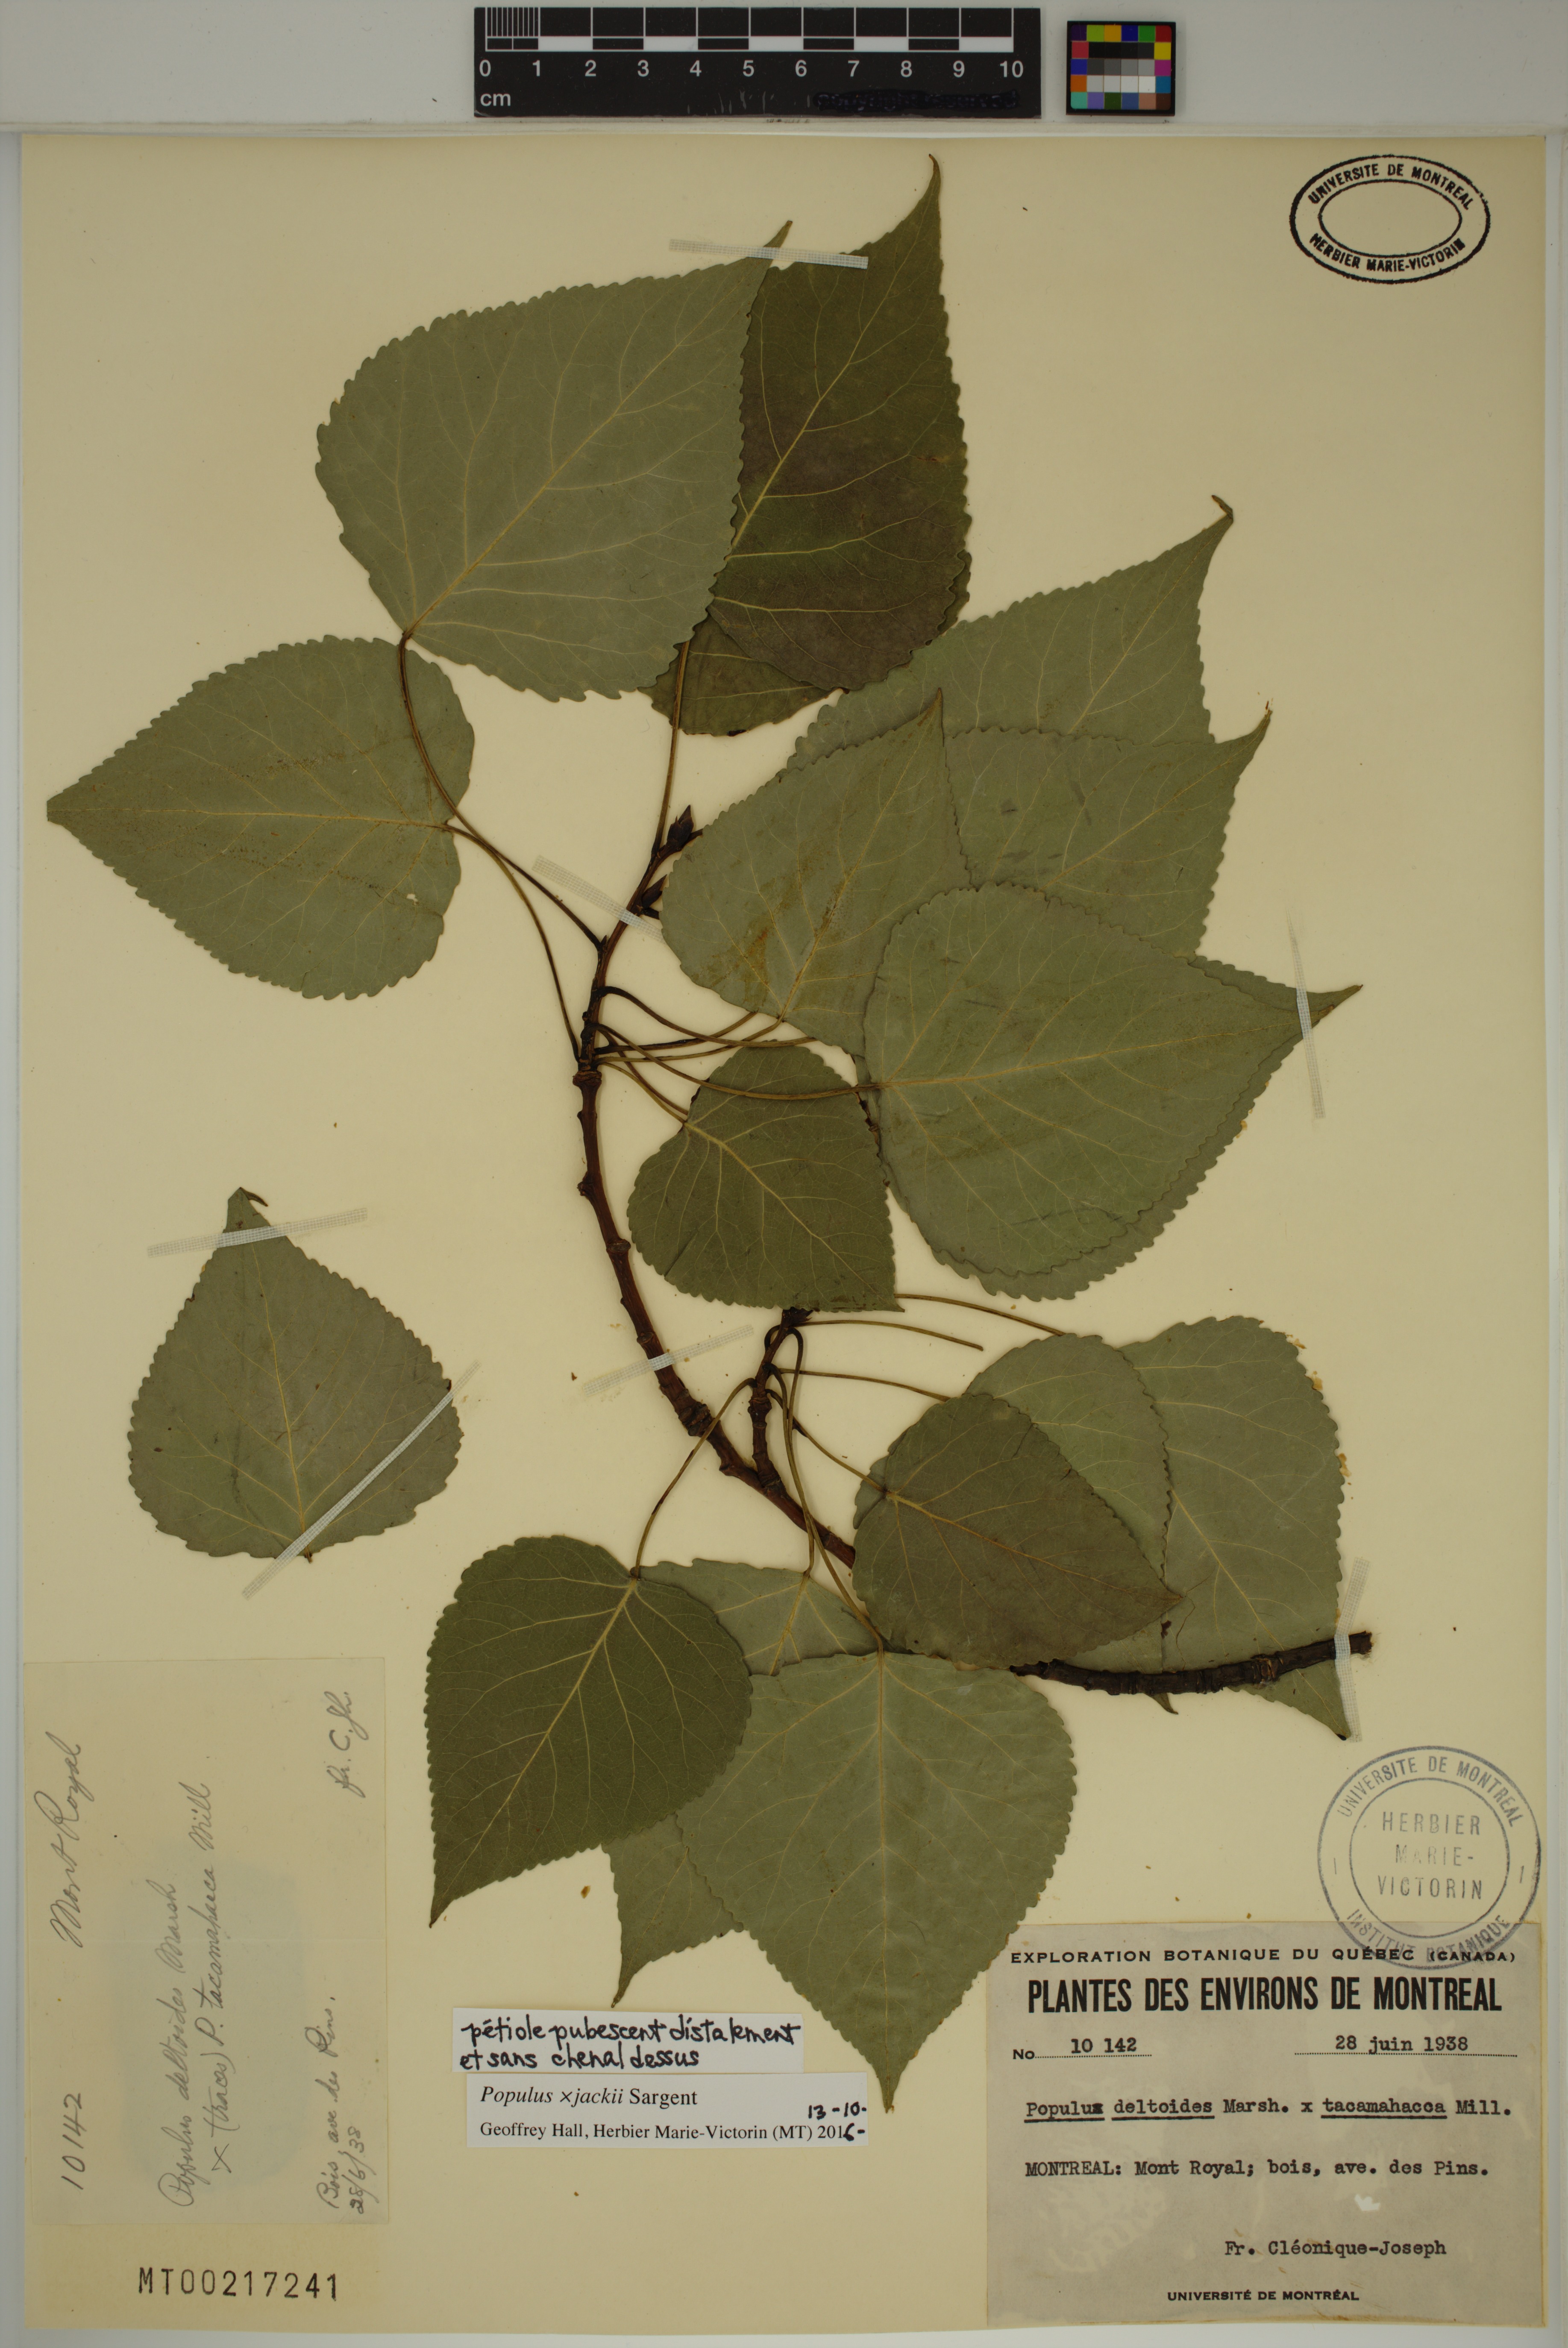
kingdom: Plantae
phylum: Tracheophyta
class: Magnoliopsida
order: Malpighiales
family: Salicaceae
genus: Populus
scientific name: Populus jackii
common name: Balm-of-gilead
